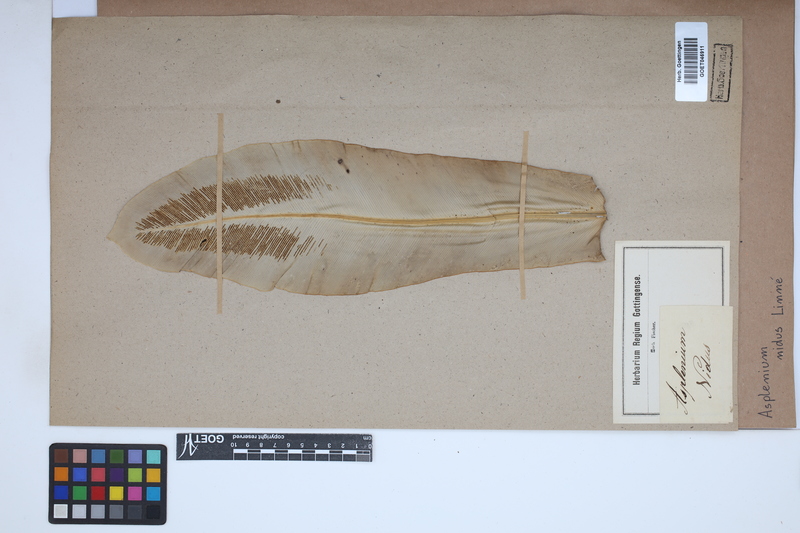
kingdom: Plantae
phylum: Tracheophyta
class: Polypodiopsida
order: Polypodiales
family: Aspleniaceae
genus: Asplenium
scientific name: Asplenium nidus
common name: Bird's-nest fern
